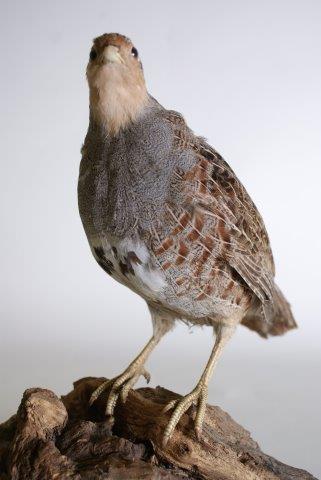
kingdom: Animalia
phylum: Chordata
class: Aves
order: Galliformes
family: Phasianidae
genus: Perdix
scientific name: Perdix perdix
